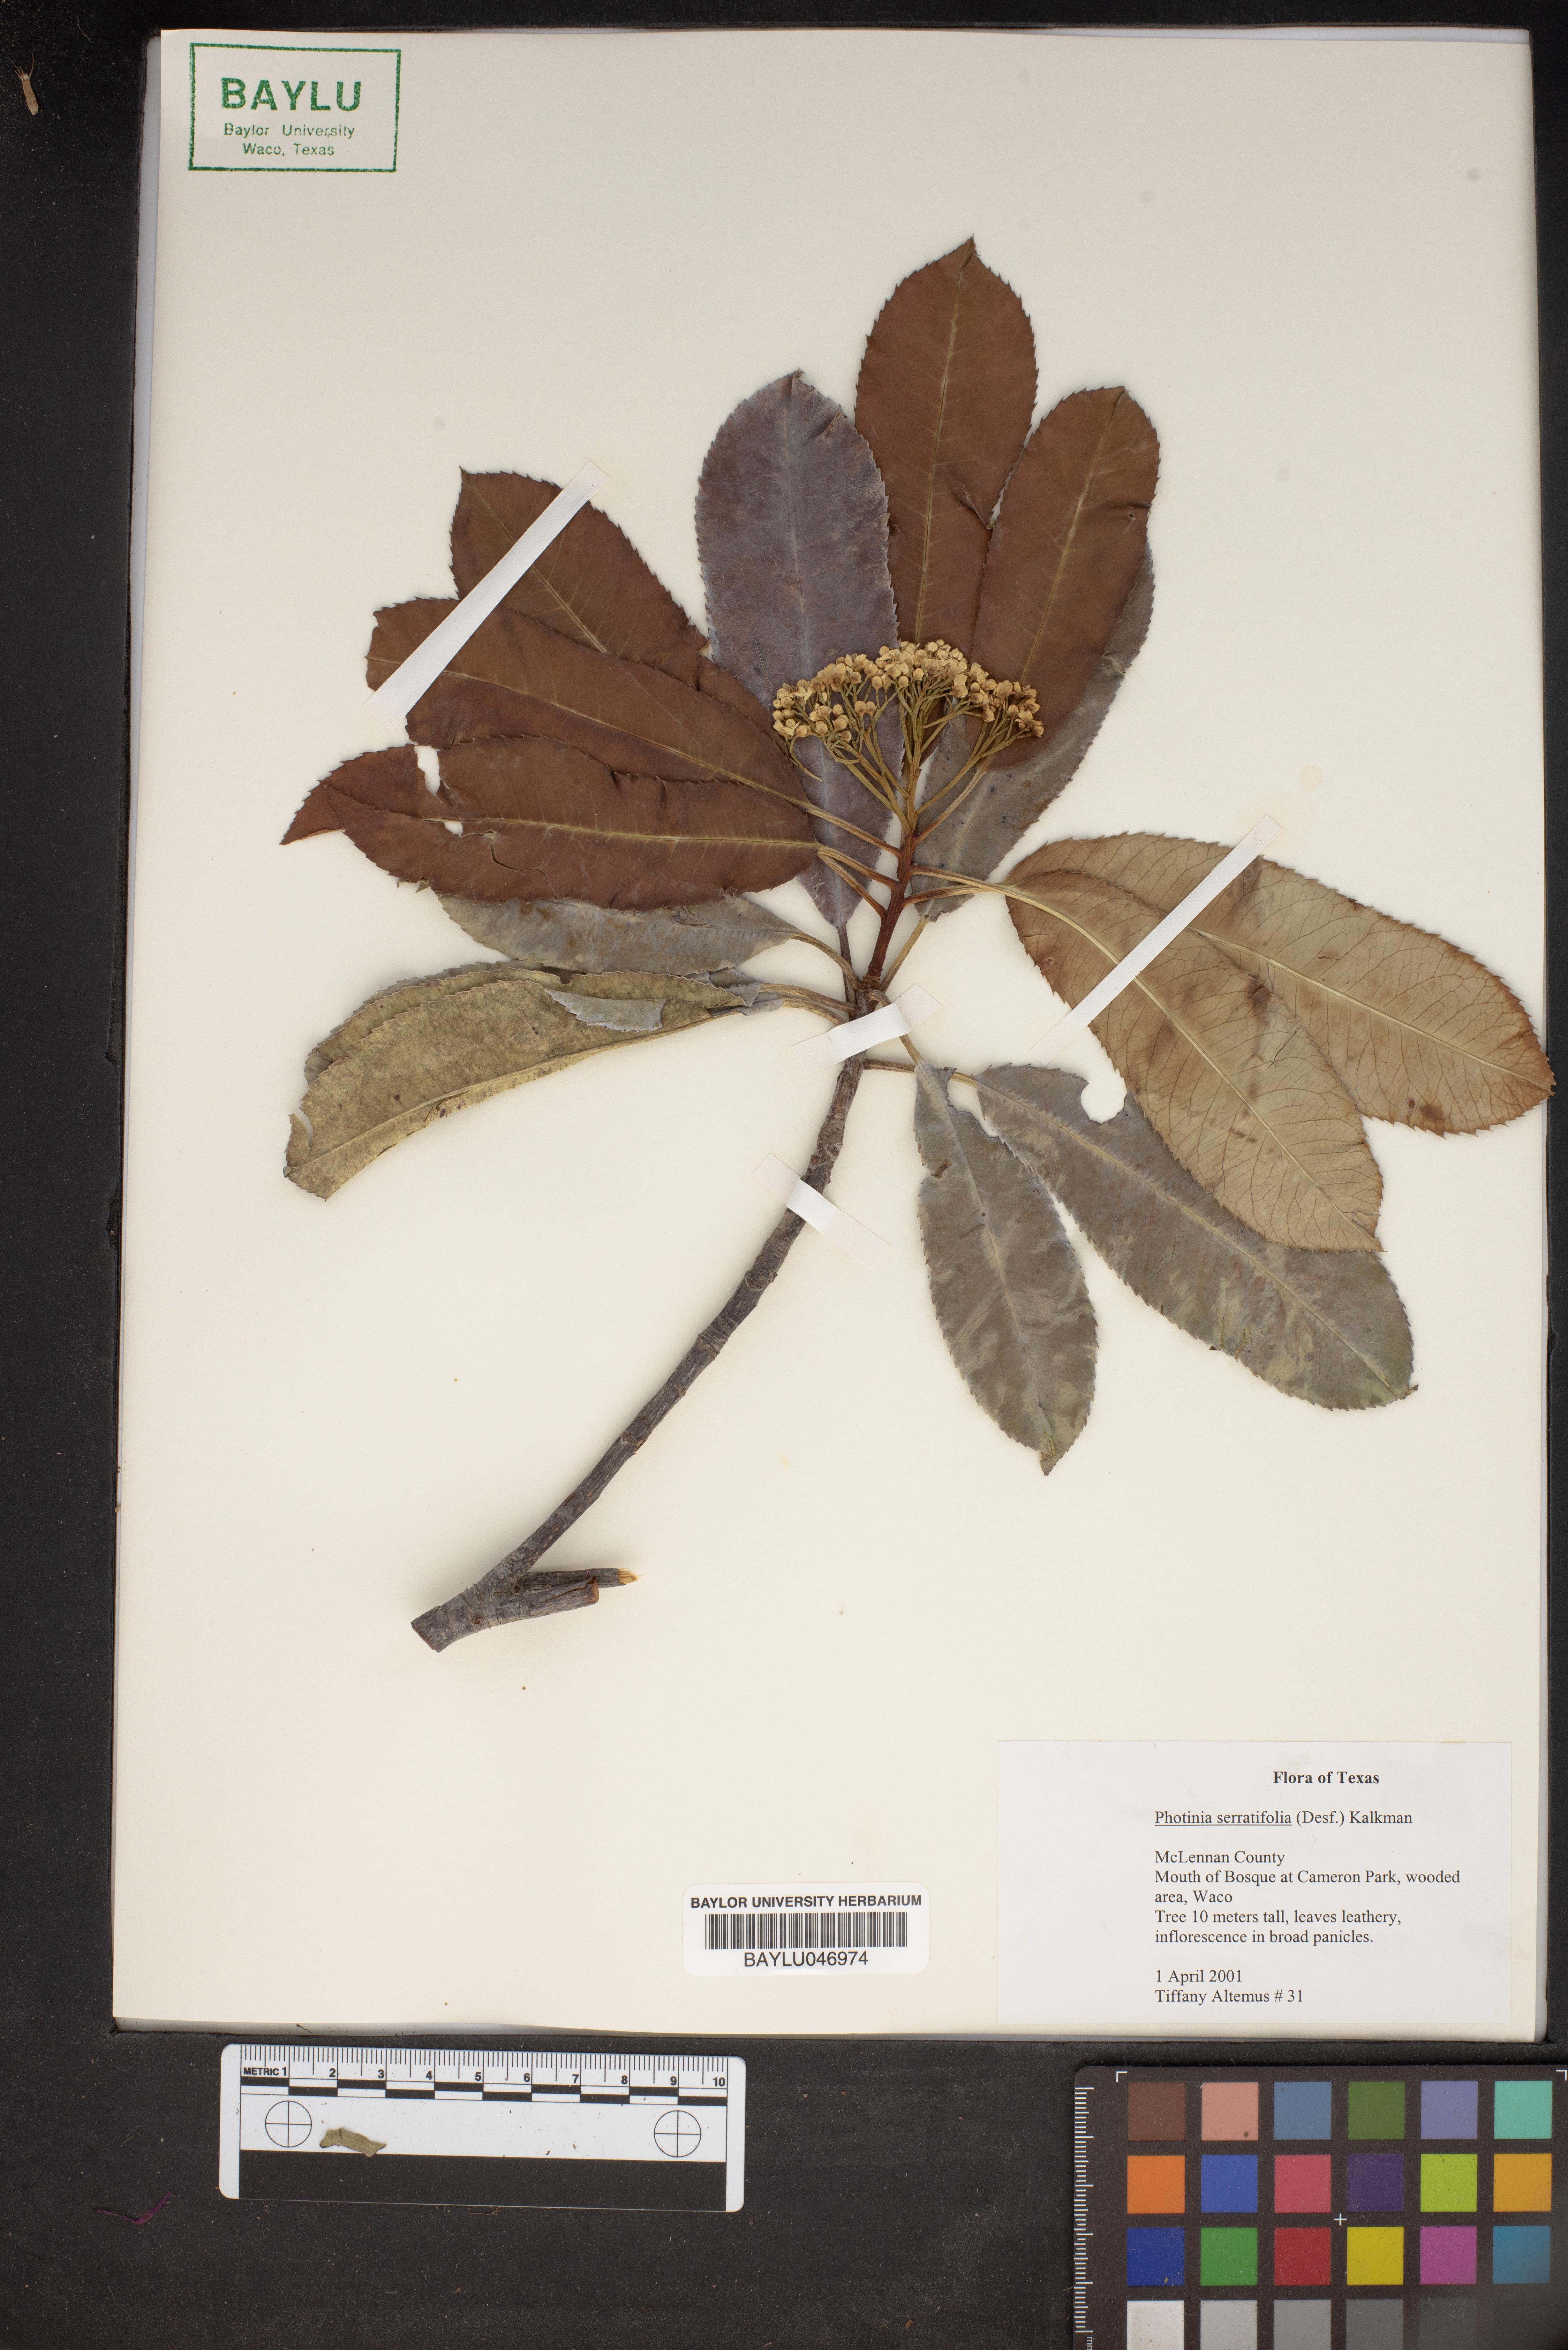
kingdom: Plantae
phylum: Tracheophyta
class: Magnoliopsida
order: Rosales
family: Rosaceae
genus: Photinia
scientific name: Photinia serratifolia
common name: Taiwanese photinia
